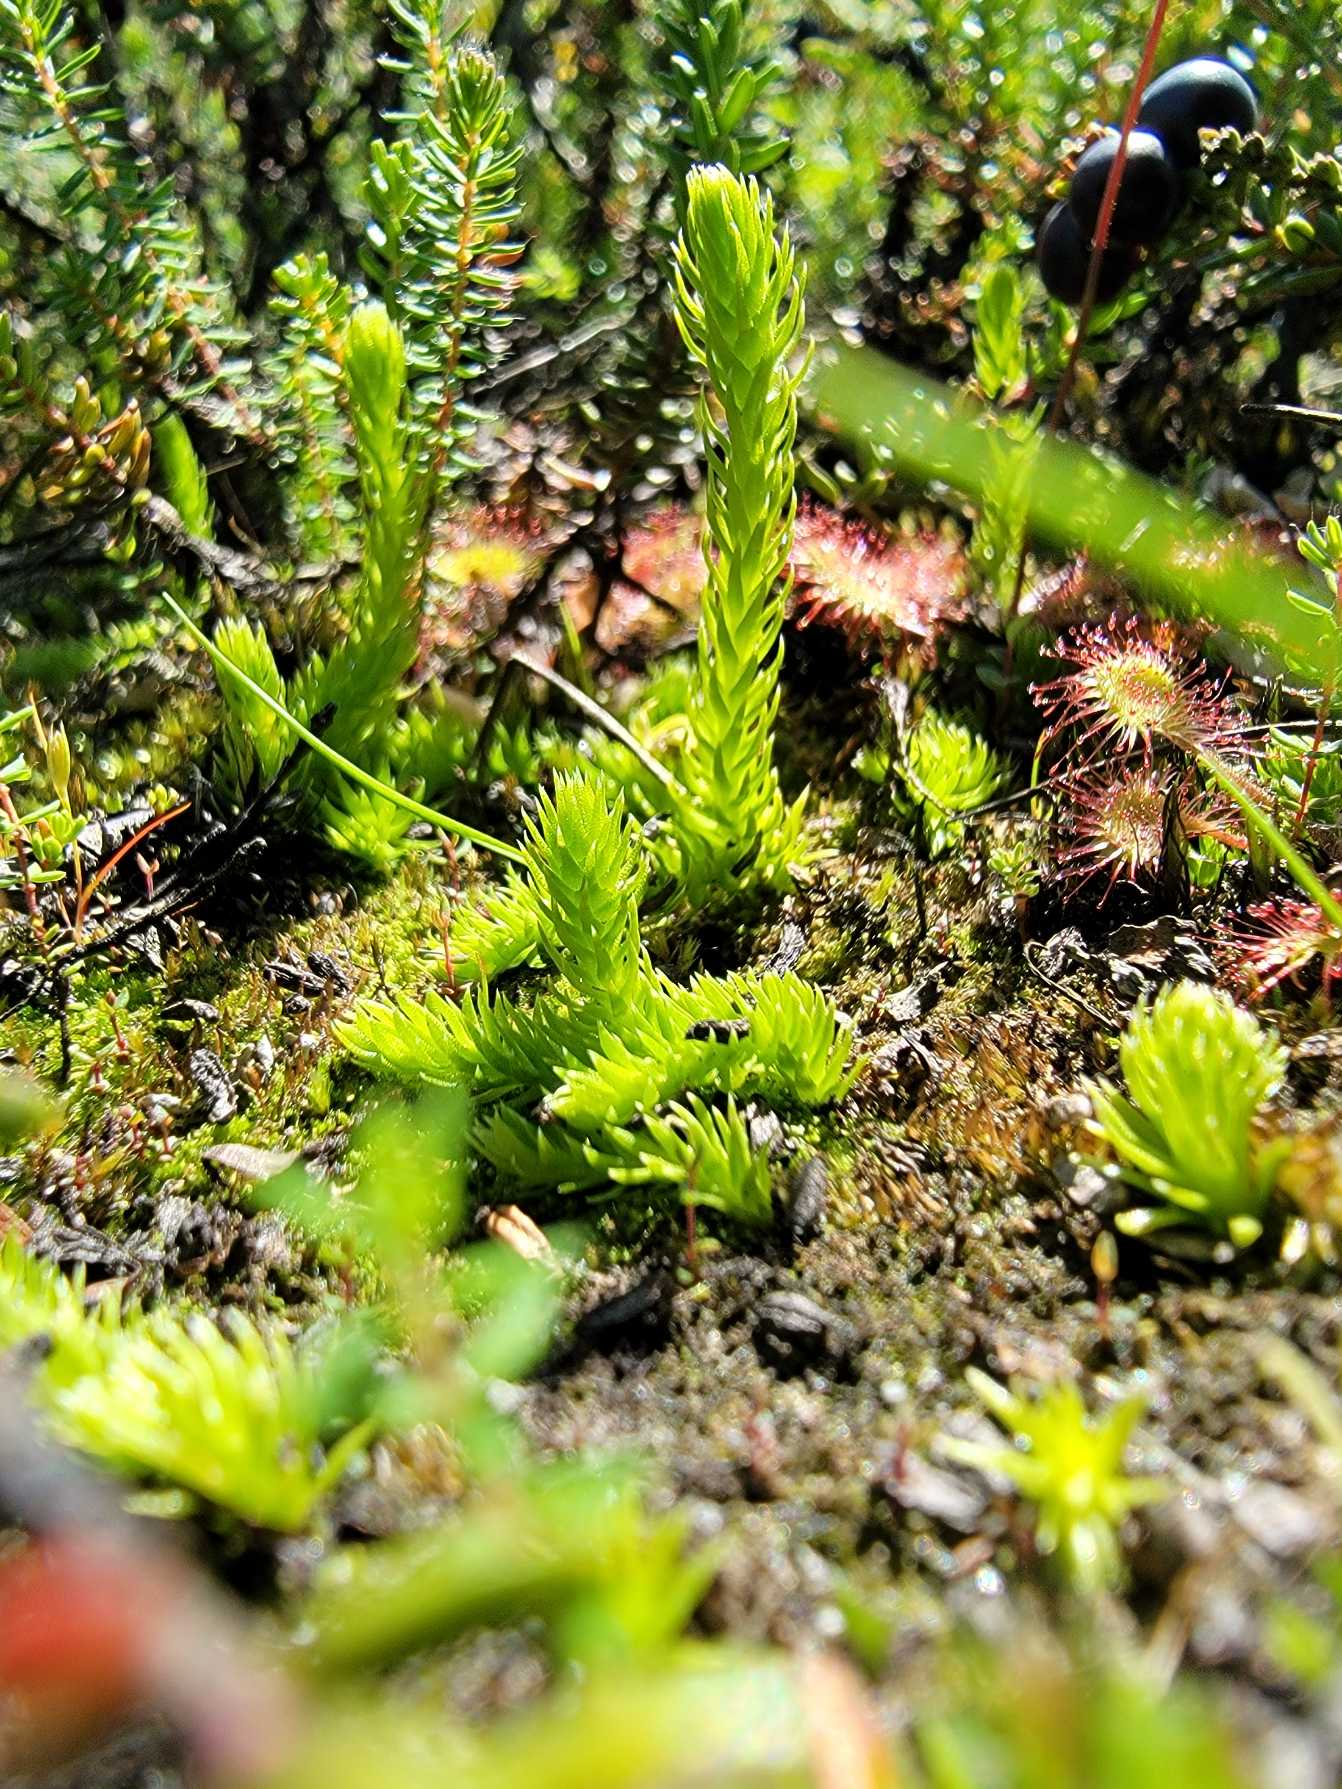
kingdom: Plantae
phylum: Tracheophyta
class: Lycopodiopsida
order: Lycopodiales
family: Lycopodiaceae
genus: Lycopodiella
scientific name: Lycopodiella inundata
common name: Liden ulvefod
